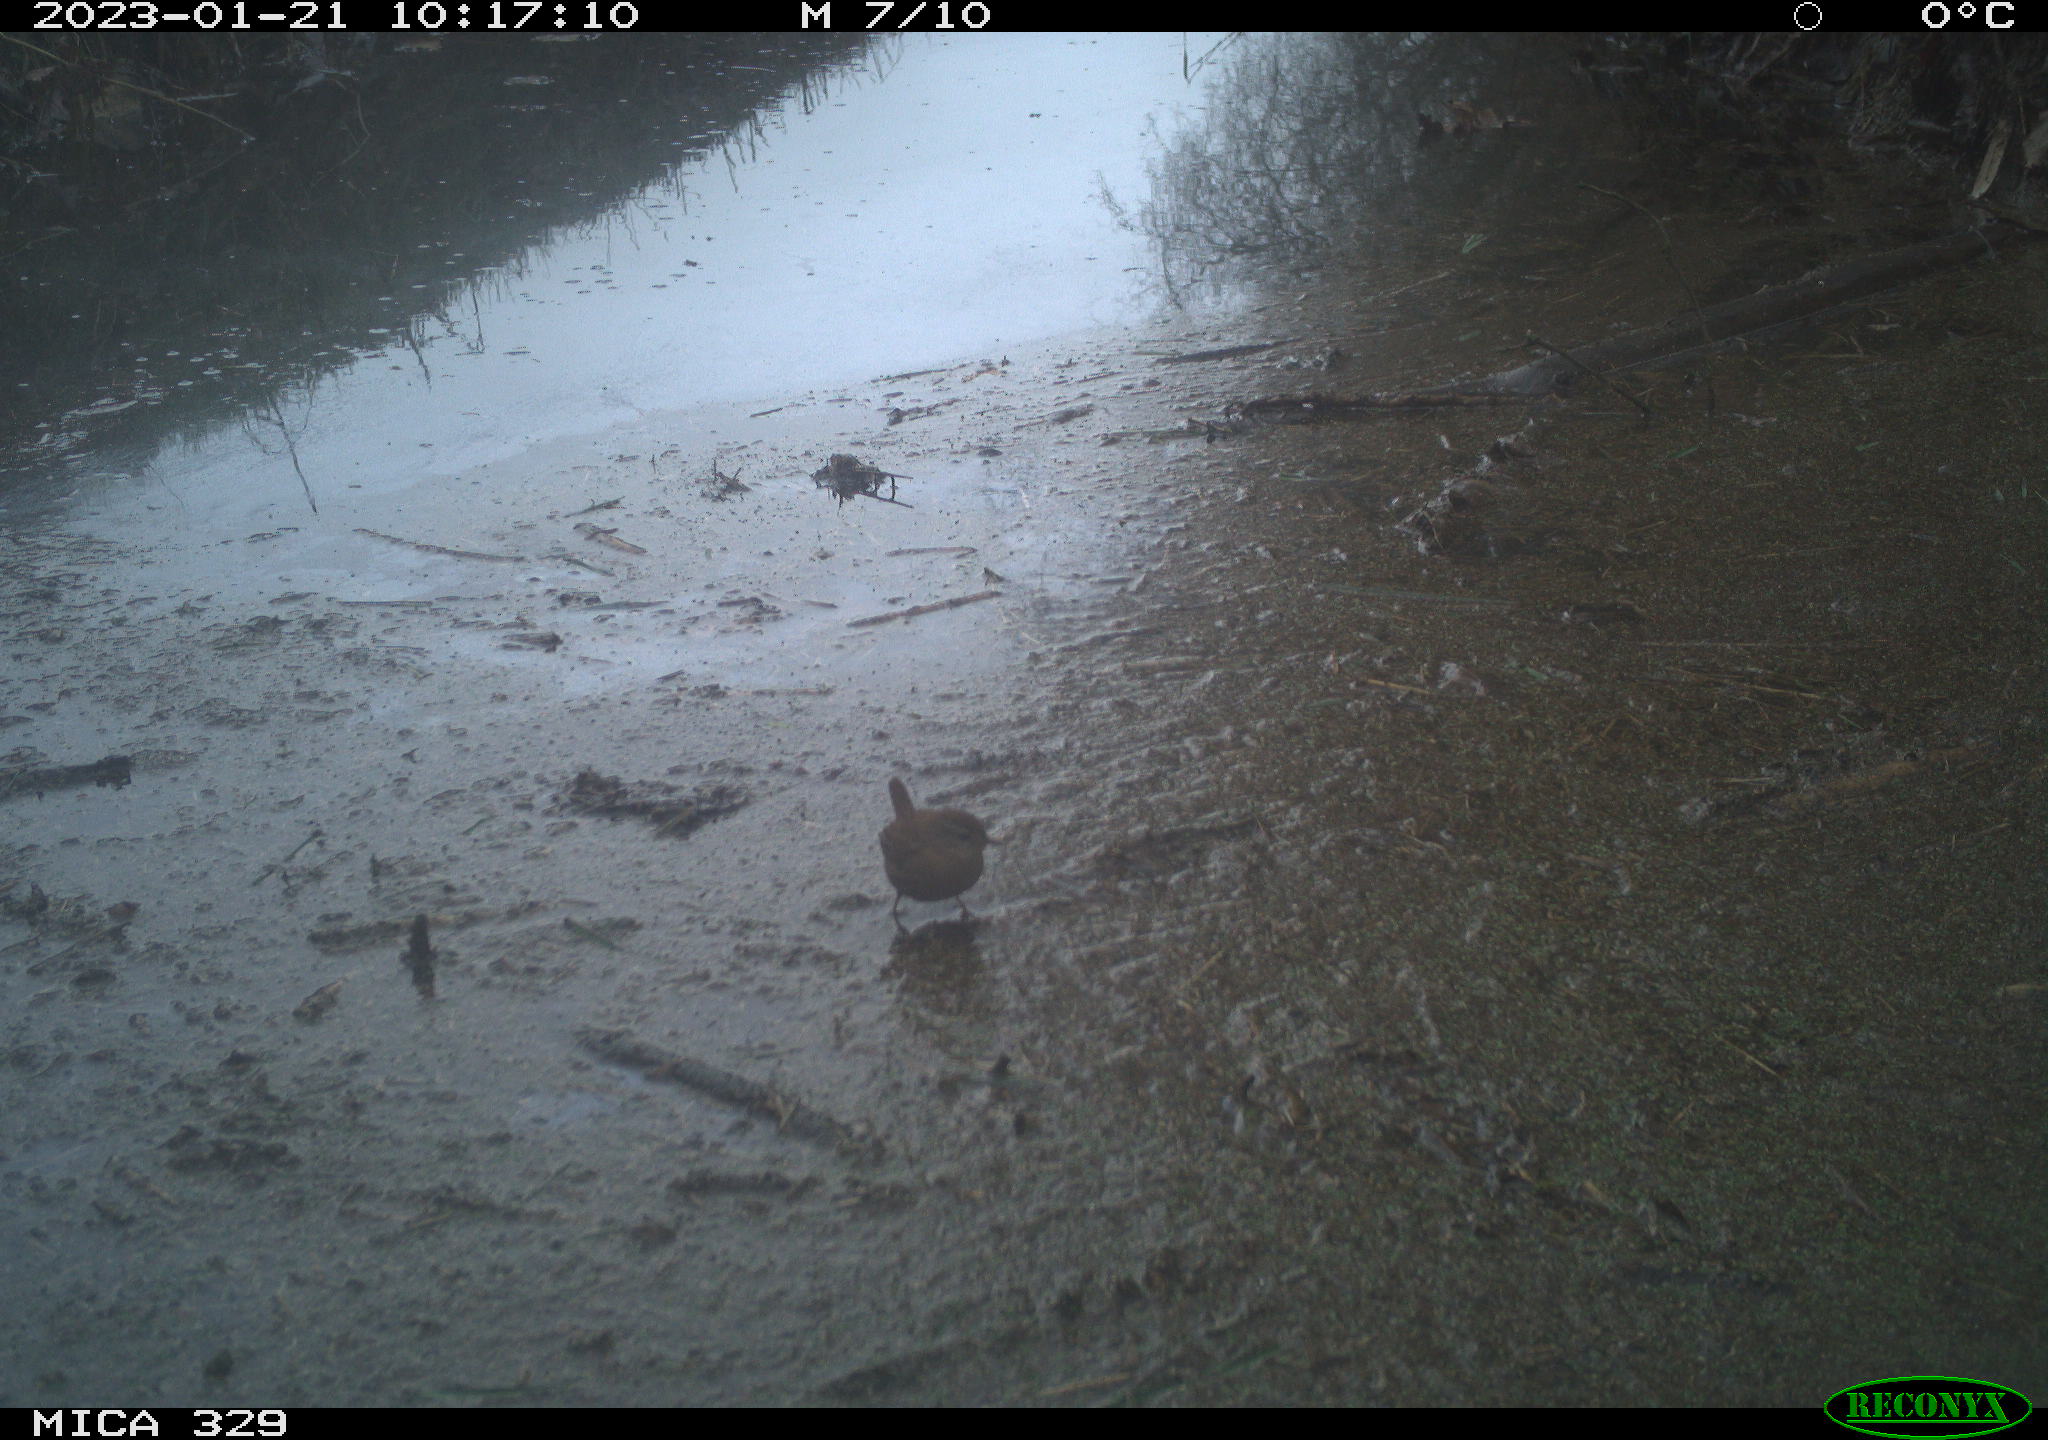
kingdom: Animalia
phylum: Chordata
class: Aves
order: Passeriformes
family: Troglodytidae
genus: Troglodytes
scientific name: Troglodytes troglodytes
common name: Eurasian wren
